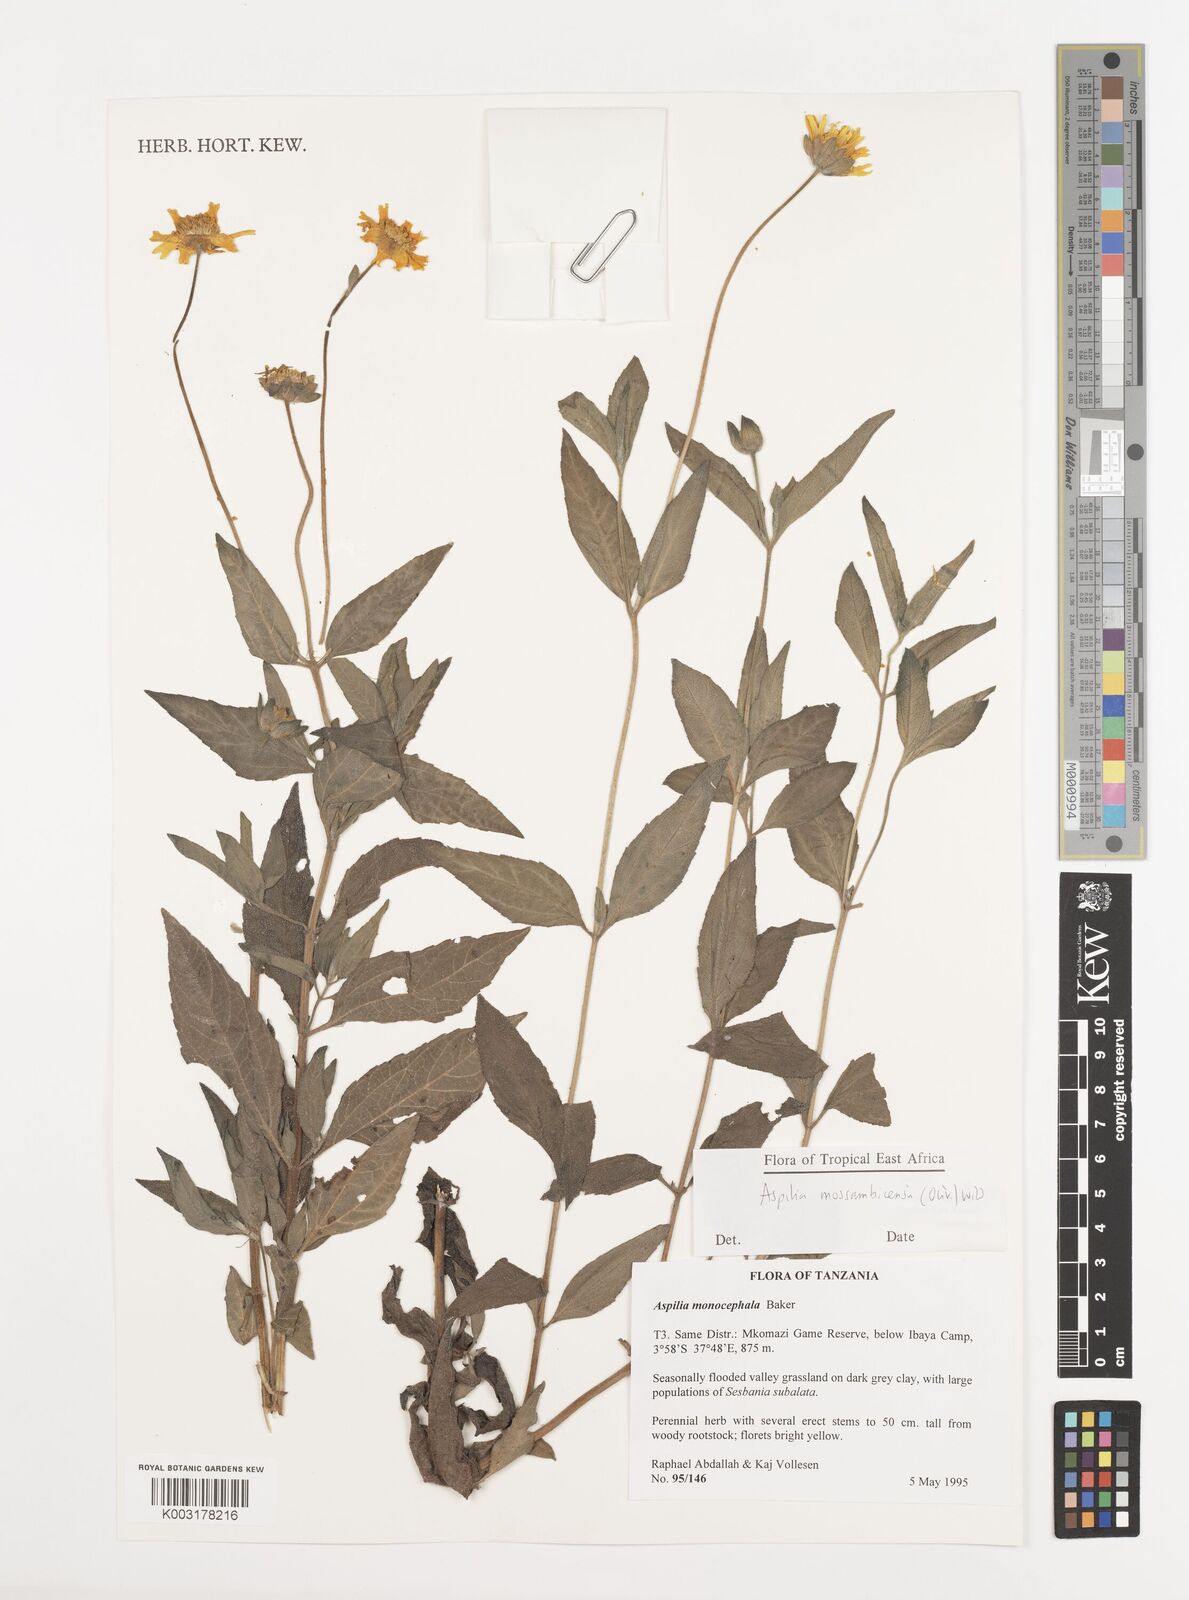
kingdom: Plantae
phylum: Tracheophyta
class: Magnoliopsida
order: Asterales
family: Asteraceae
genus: Aspilia
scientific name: Aspilia mossambicensis
